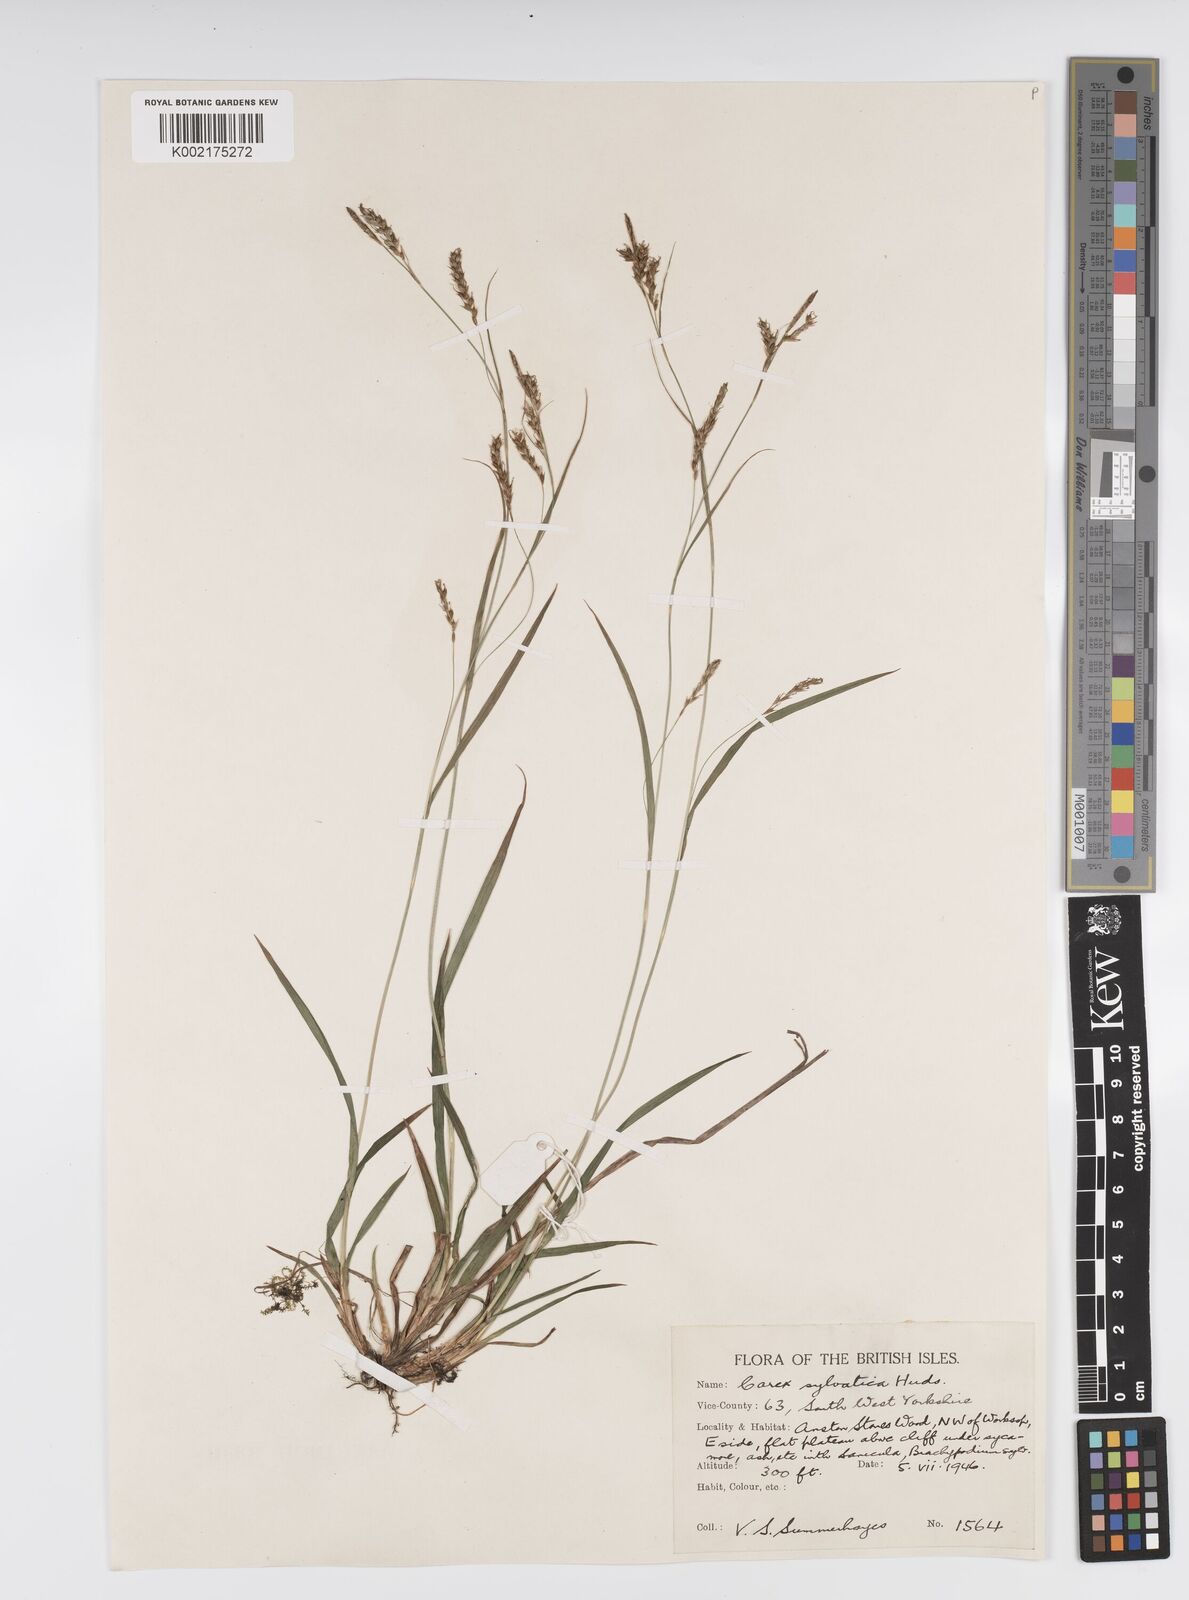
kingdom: Plantae
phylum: Tracheophyta
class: Liliopsida
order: Poales
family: Cyperaceae
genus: Carex
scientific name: Carex sylvatica
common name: Wood-sedge
